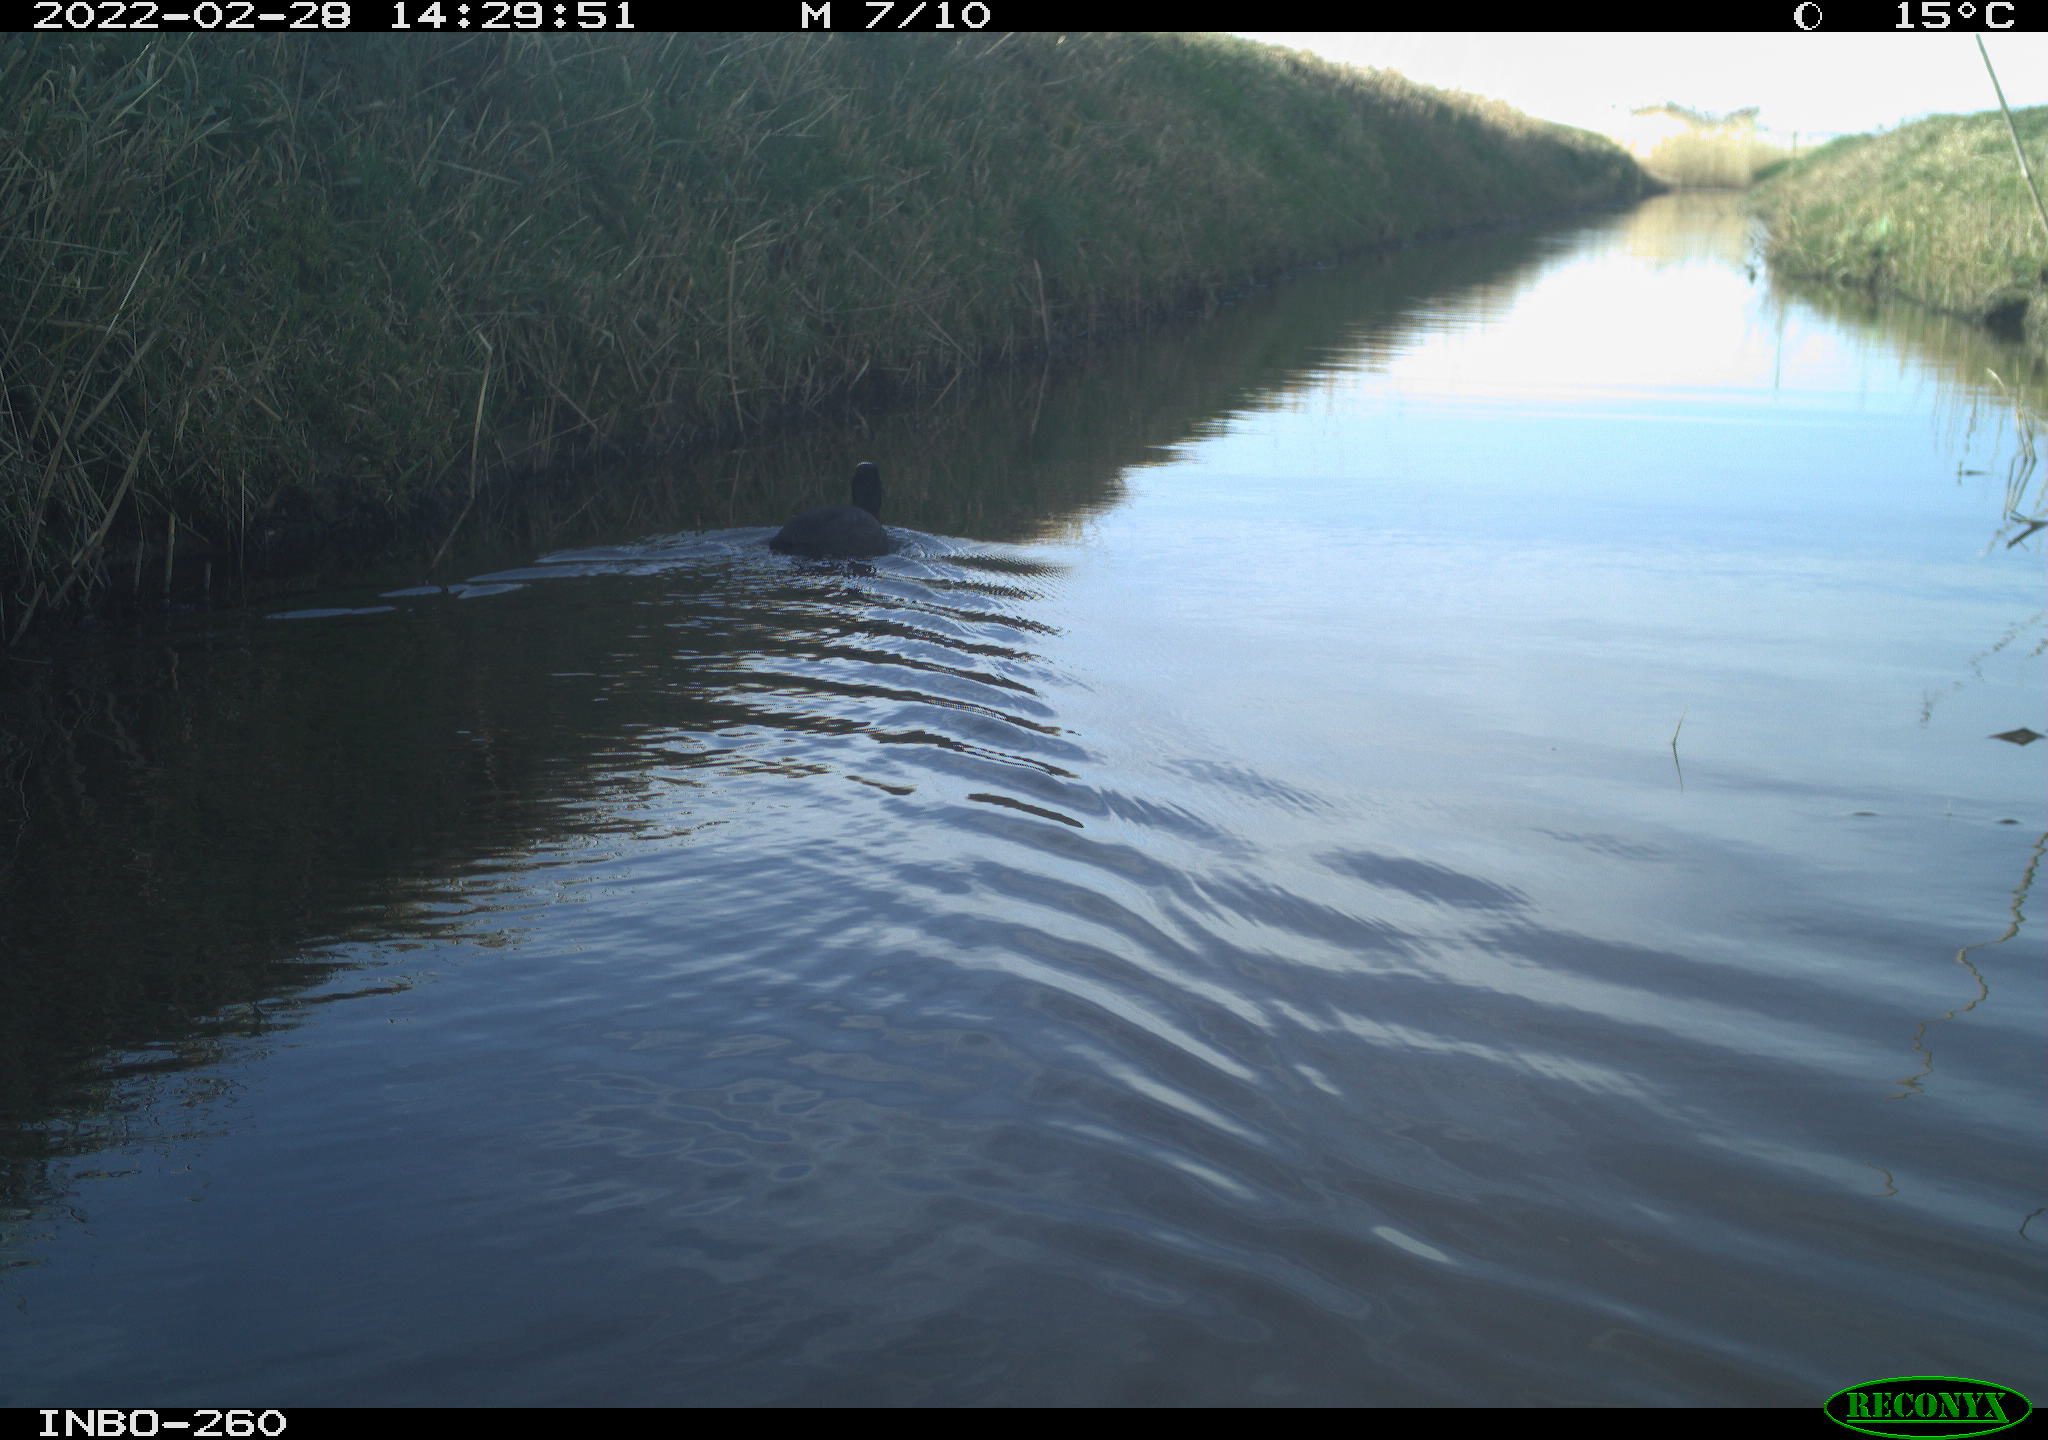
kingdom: Animalia
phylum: Chordata
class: Aves
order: Gruiformes
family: Rallidae
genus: Fulica
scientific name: Fulica atra
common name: Eurasian coot
